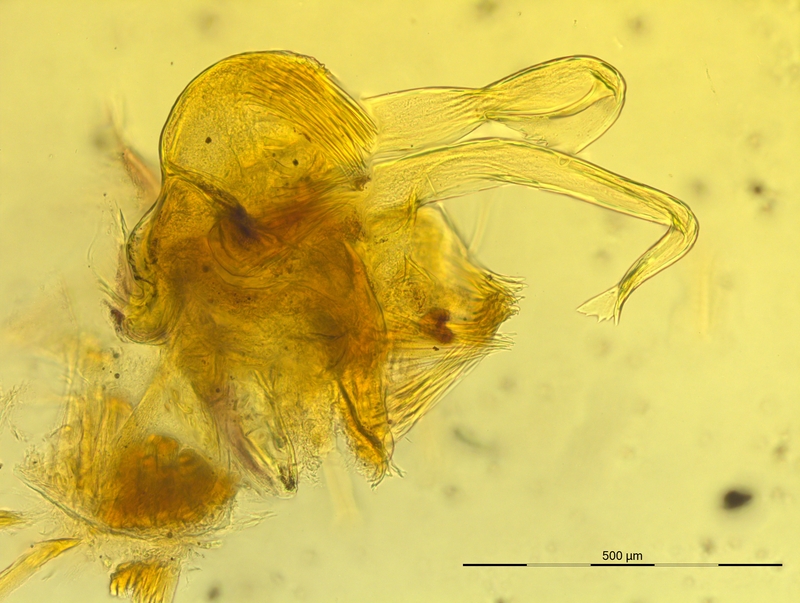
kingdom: Animalia
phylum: Arthropoda
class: Diplopoda
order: Chordeumatida
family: Craspedosomatidae
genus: Bergamosoma
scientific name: Bergamosoma sevini
